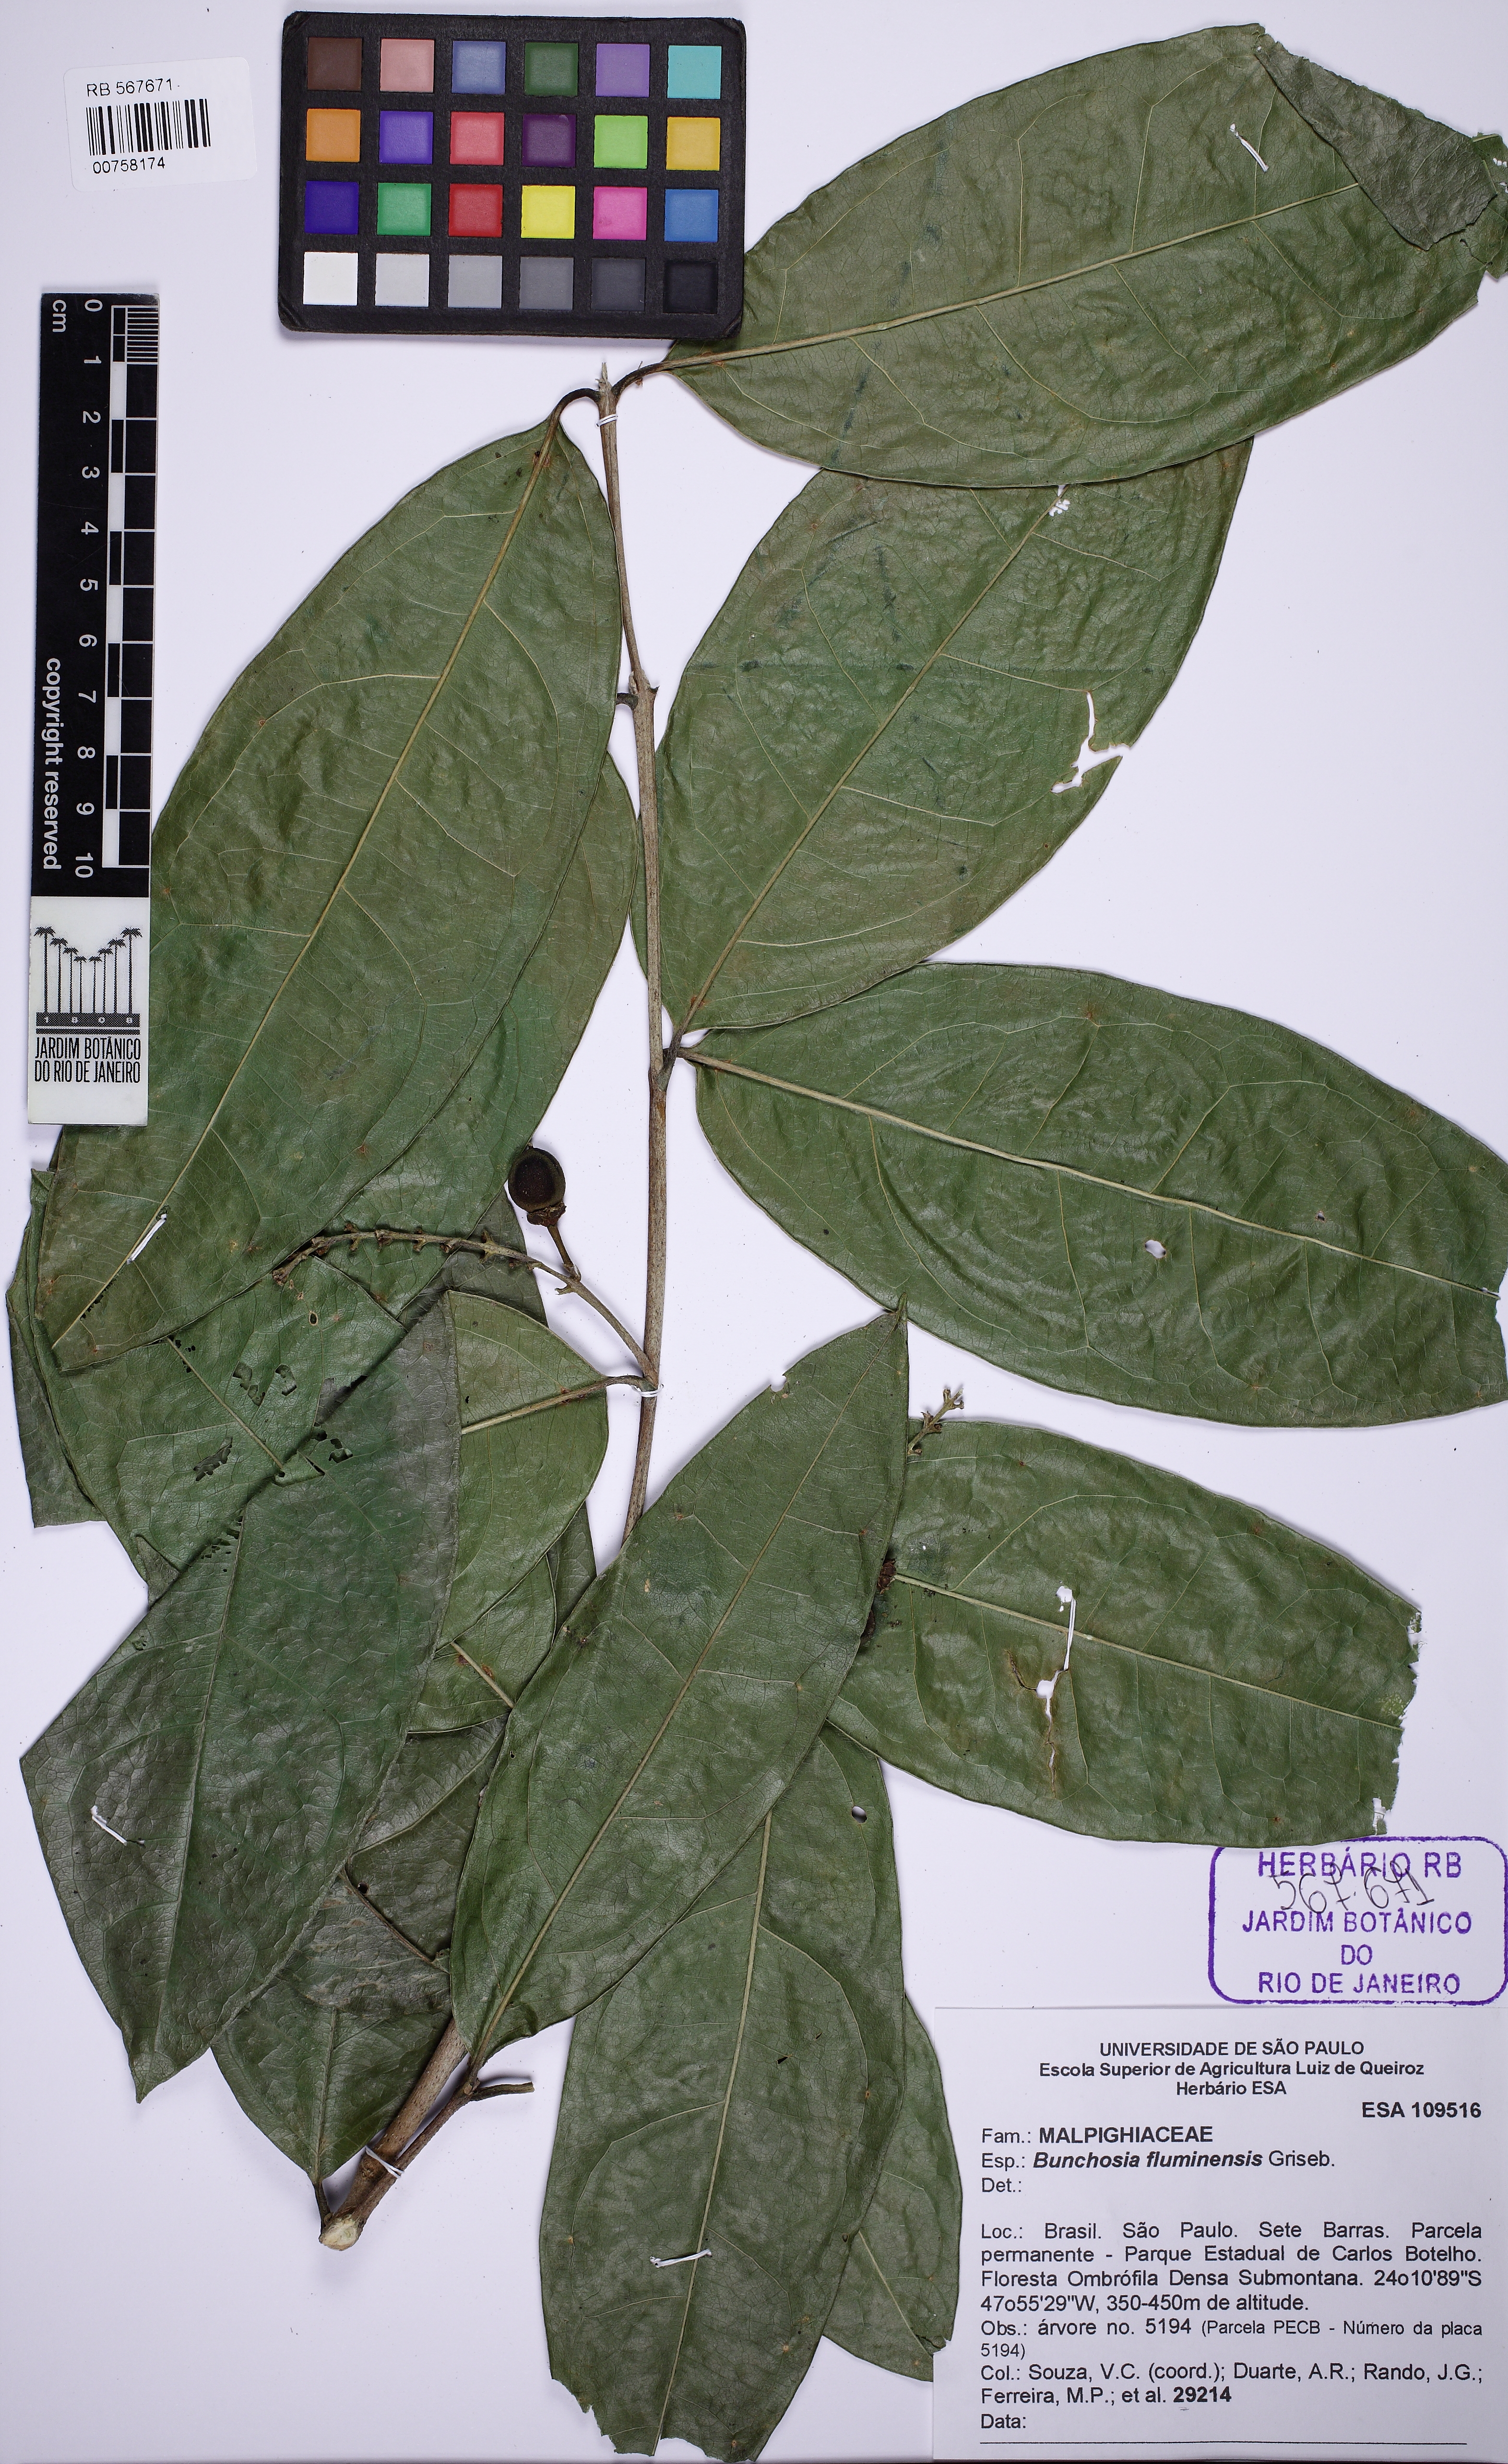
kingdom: Plantae
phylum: Tracheophyta
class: Magnoliopsida
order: Malpighiales
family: Malpighiaceae
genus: Bunchosia
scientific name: Bunchosia maritima
